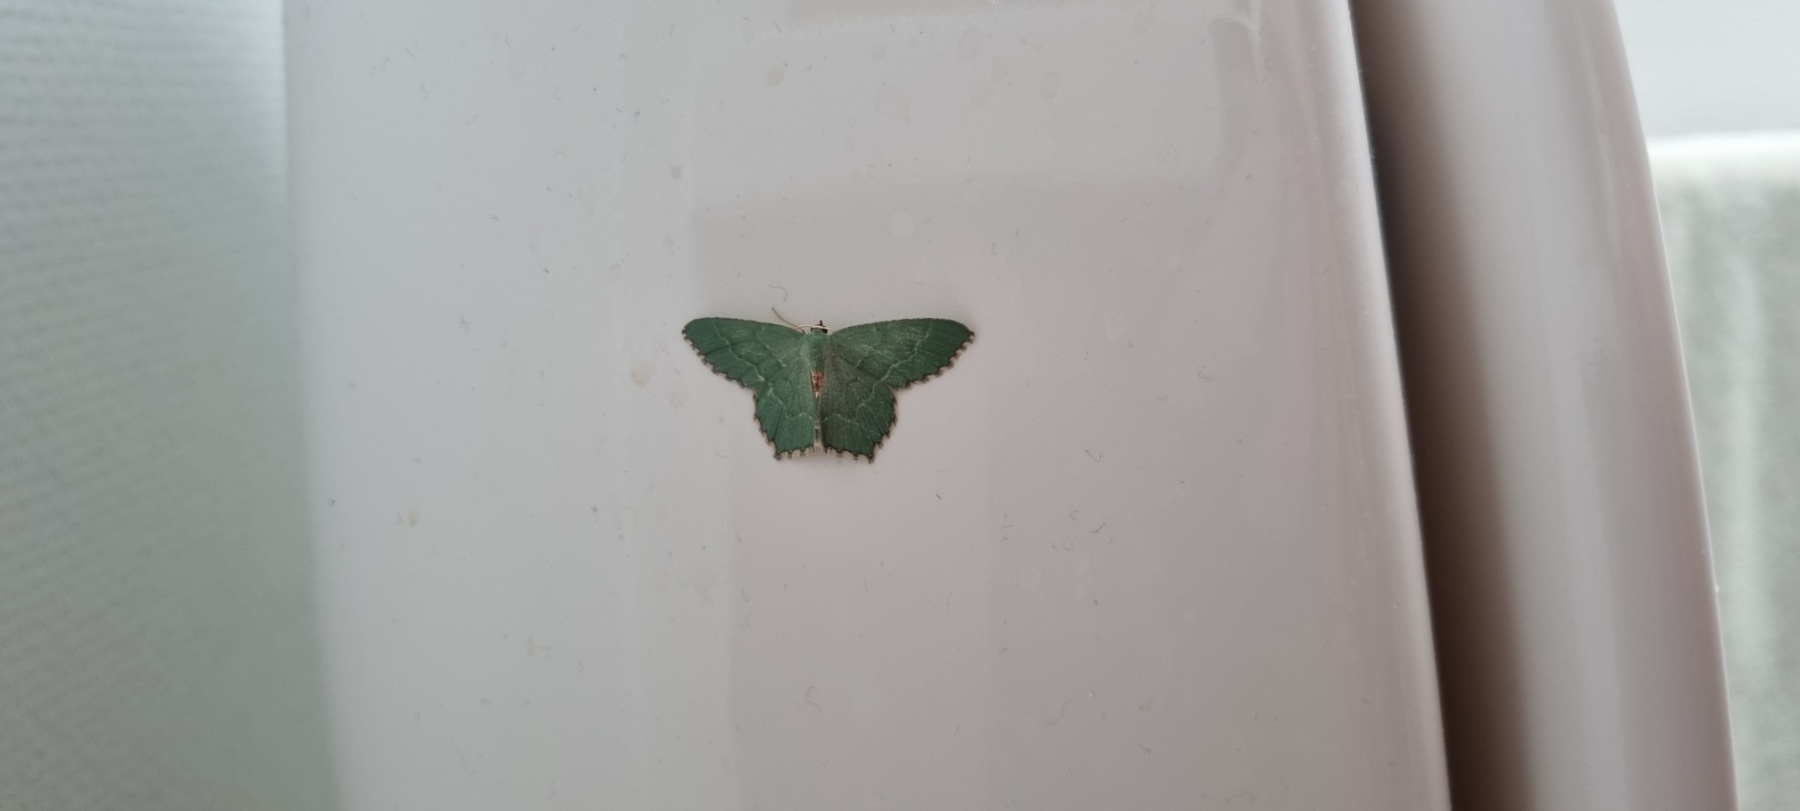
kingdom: Animalia
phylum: Arthropoda
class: Insecta
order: Lepidoptera
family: Geometridae
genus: Hemithea
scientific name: Hemithea aestivaria
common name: Lundmåler
